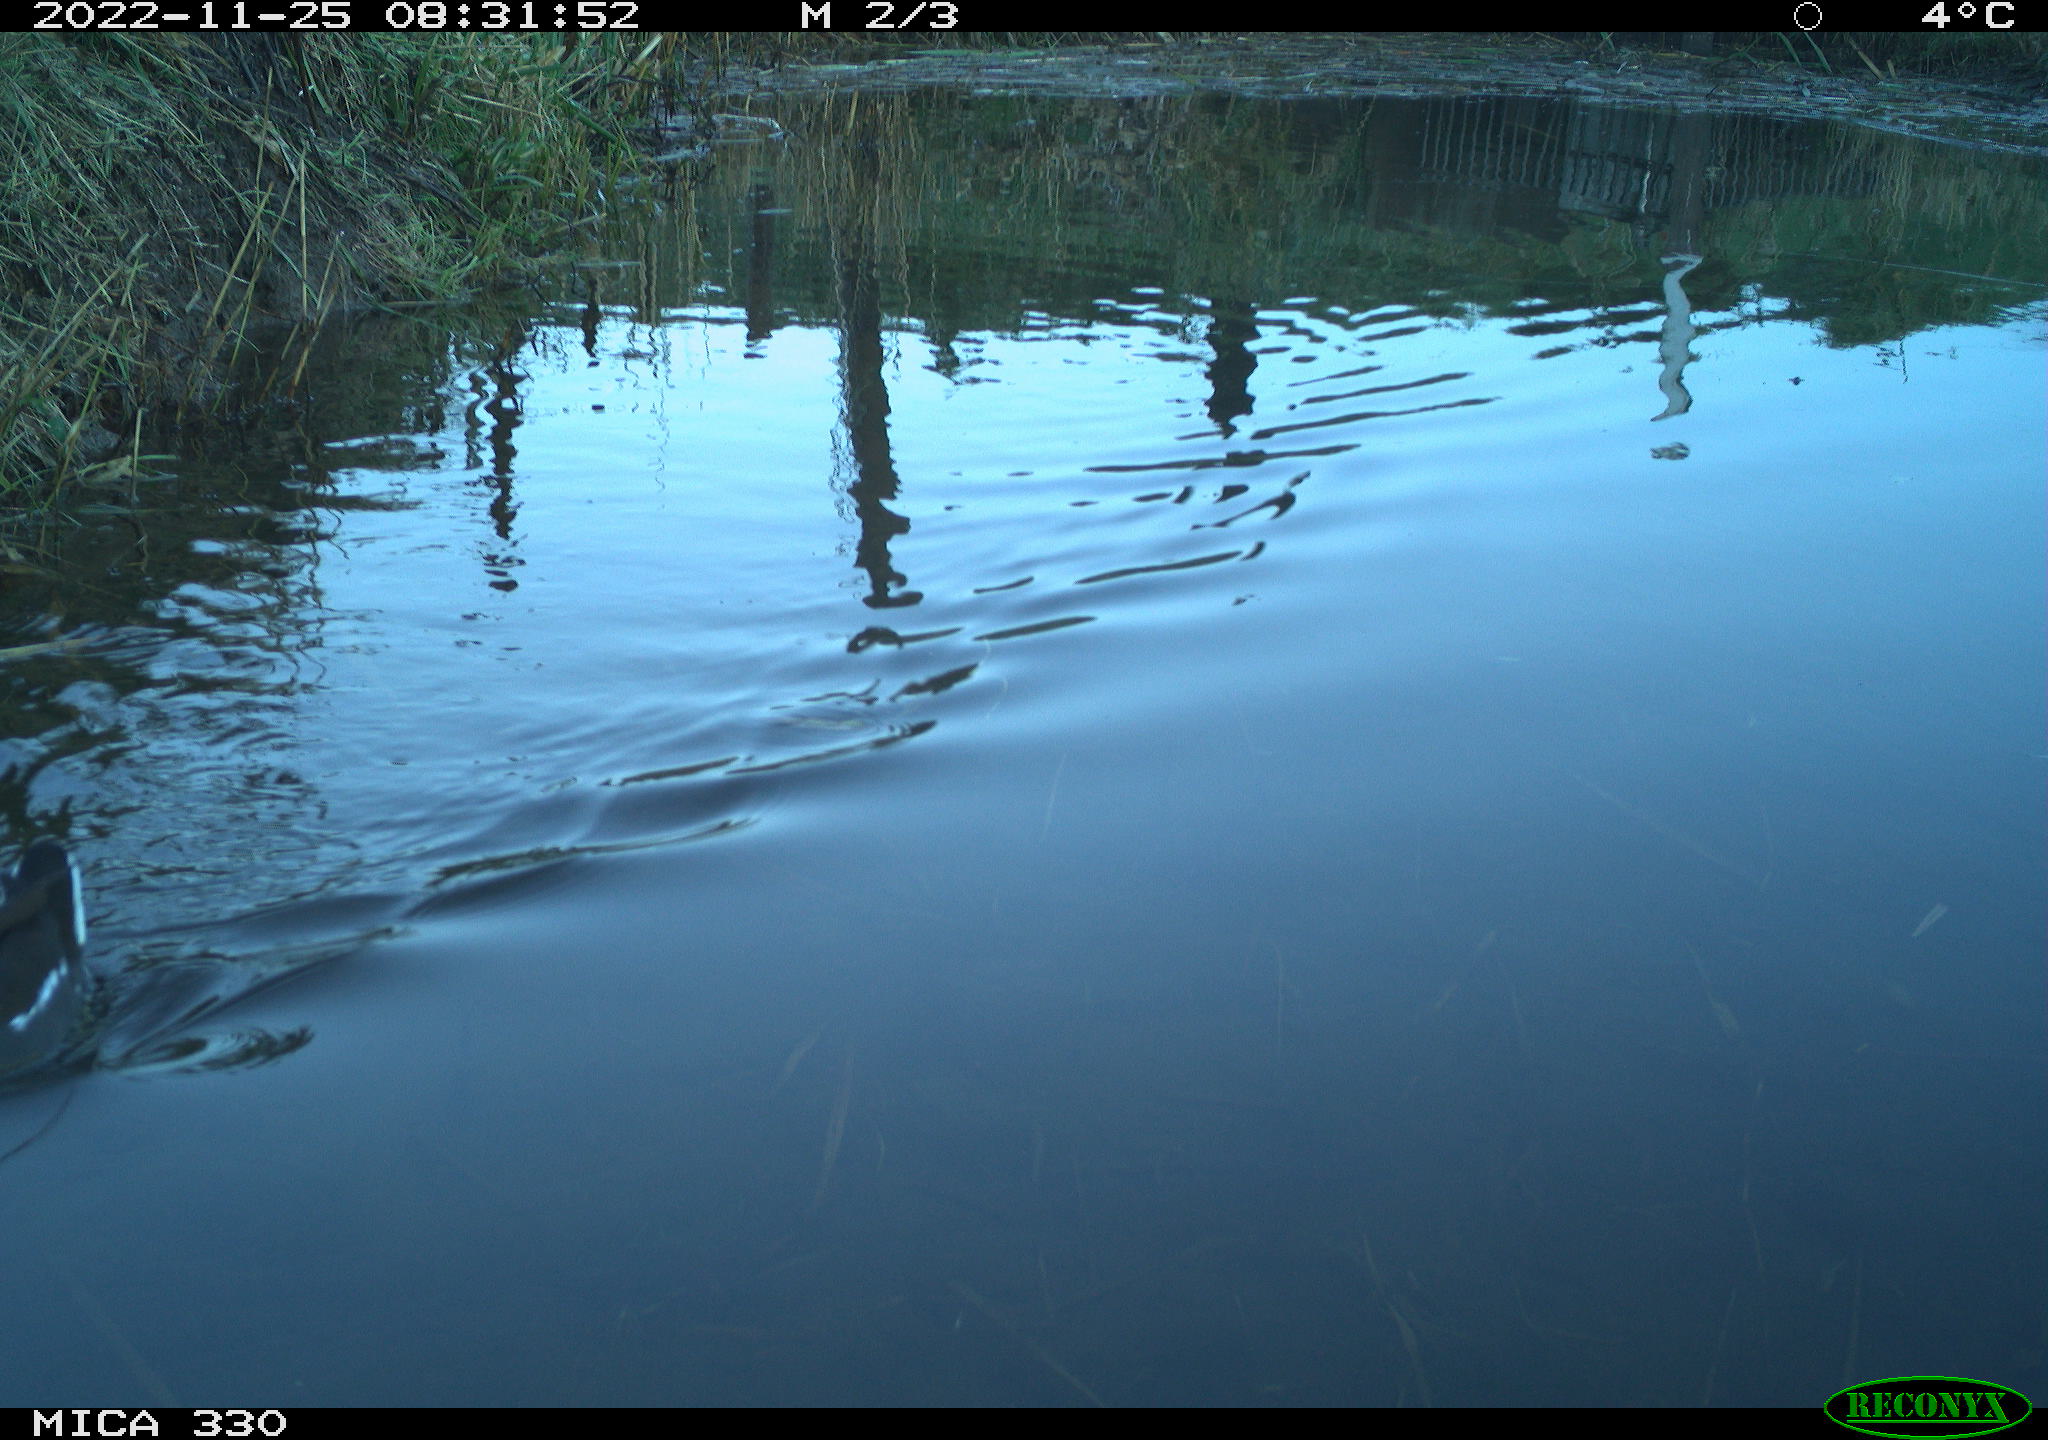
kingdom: Animalia
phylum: Chordata
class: Aves
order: Gruiformes
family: Rallidae
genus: Gallinula
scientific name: Gallinula chloropus
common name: Common moorhen
